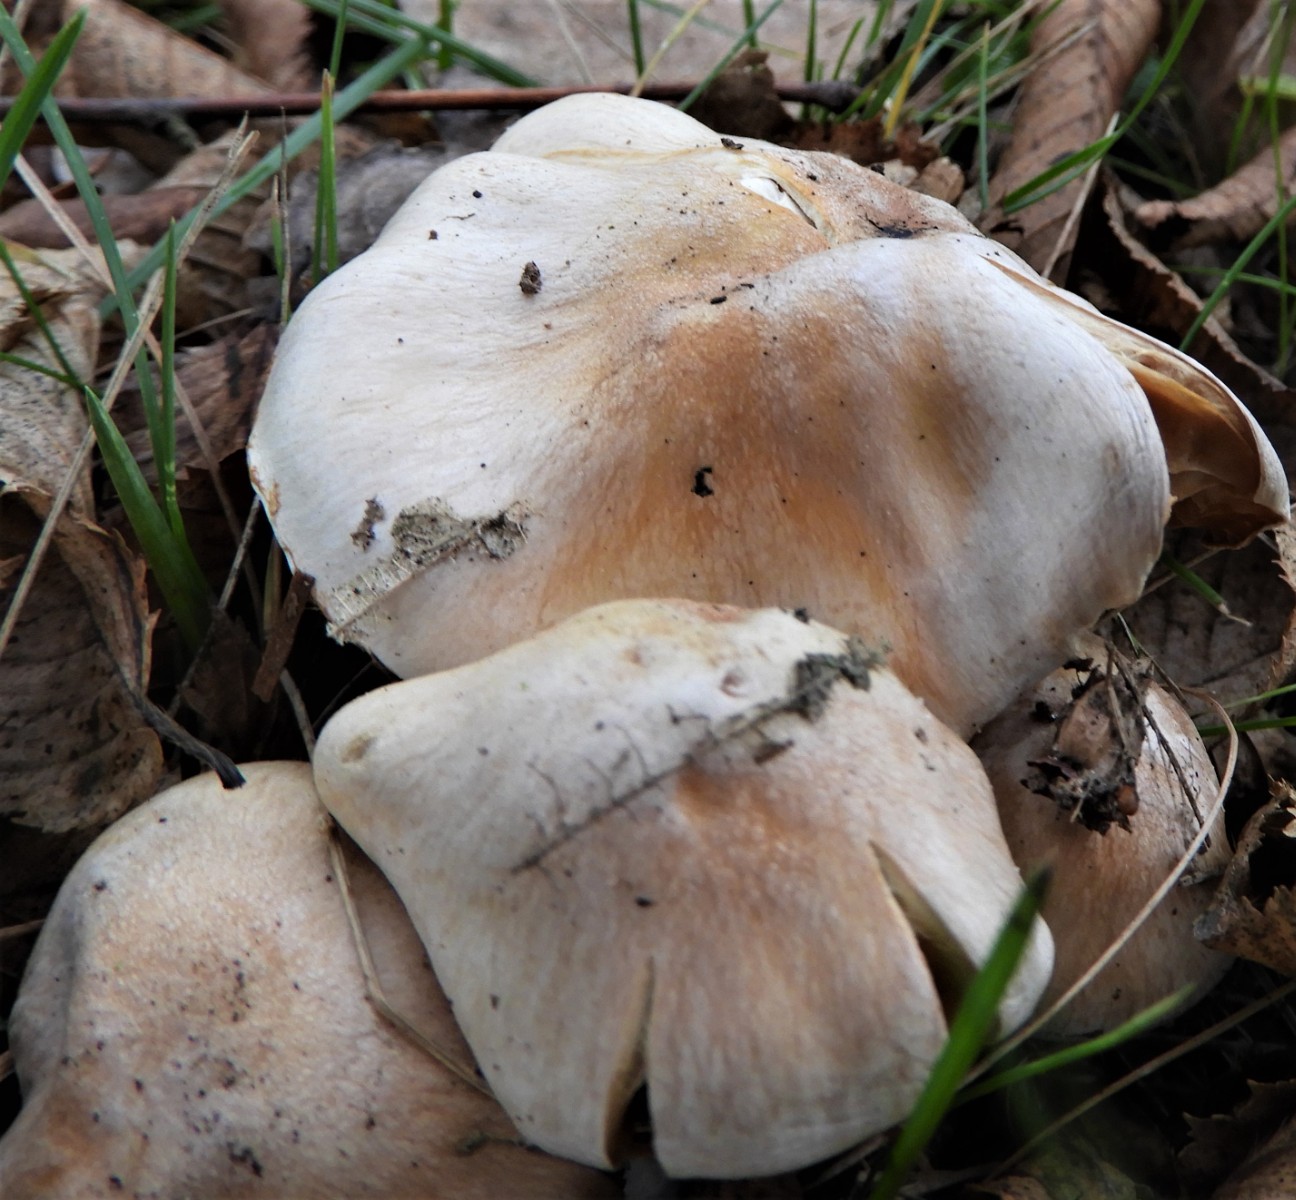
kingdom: Fungi
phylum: Basidiomycota
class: Agaricomycetes
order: Agaricales
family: Cortinariaceae
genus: Cortinarius
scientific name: Cortinarius
